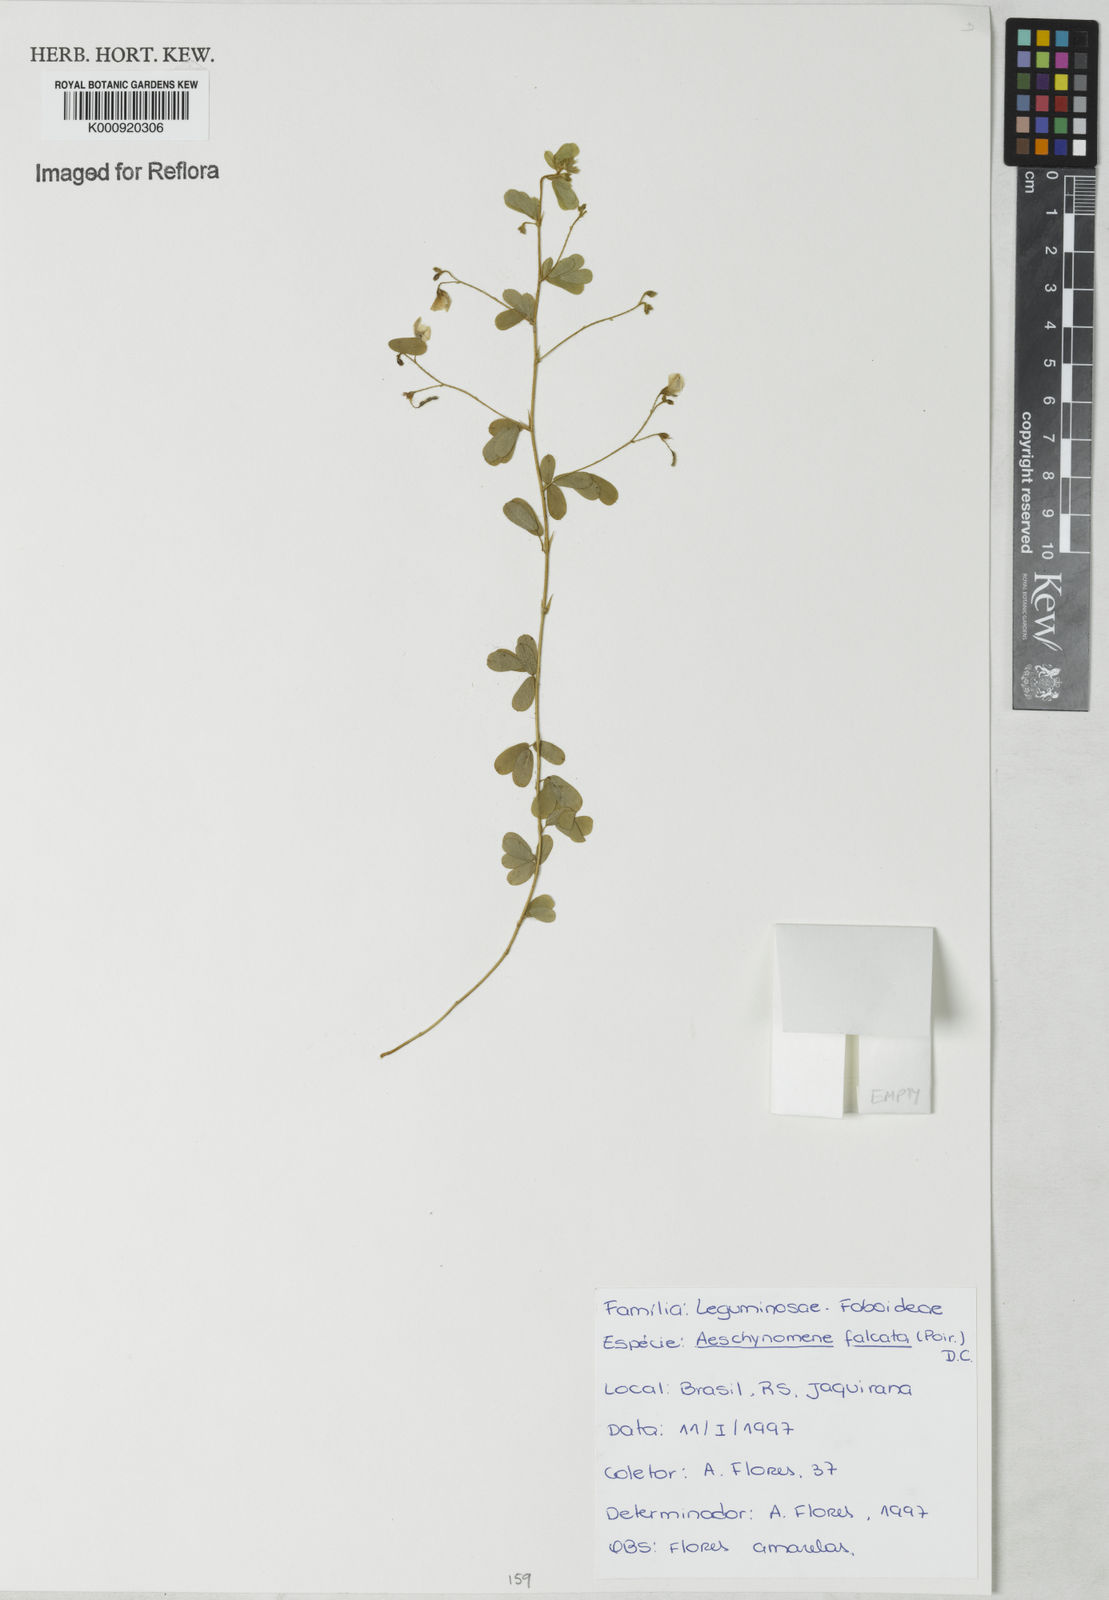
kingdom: Plantae
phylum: Tracheophyta
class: Magnoliopsida
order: Fabales
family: Fabaceae
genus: Aeschynomene
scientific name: Aeschynomene
